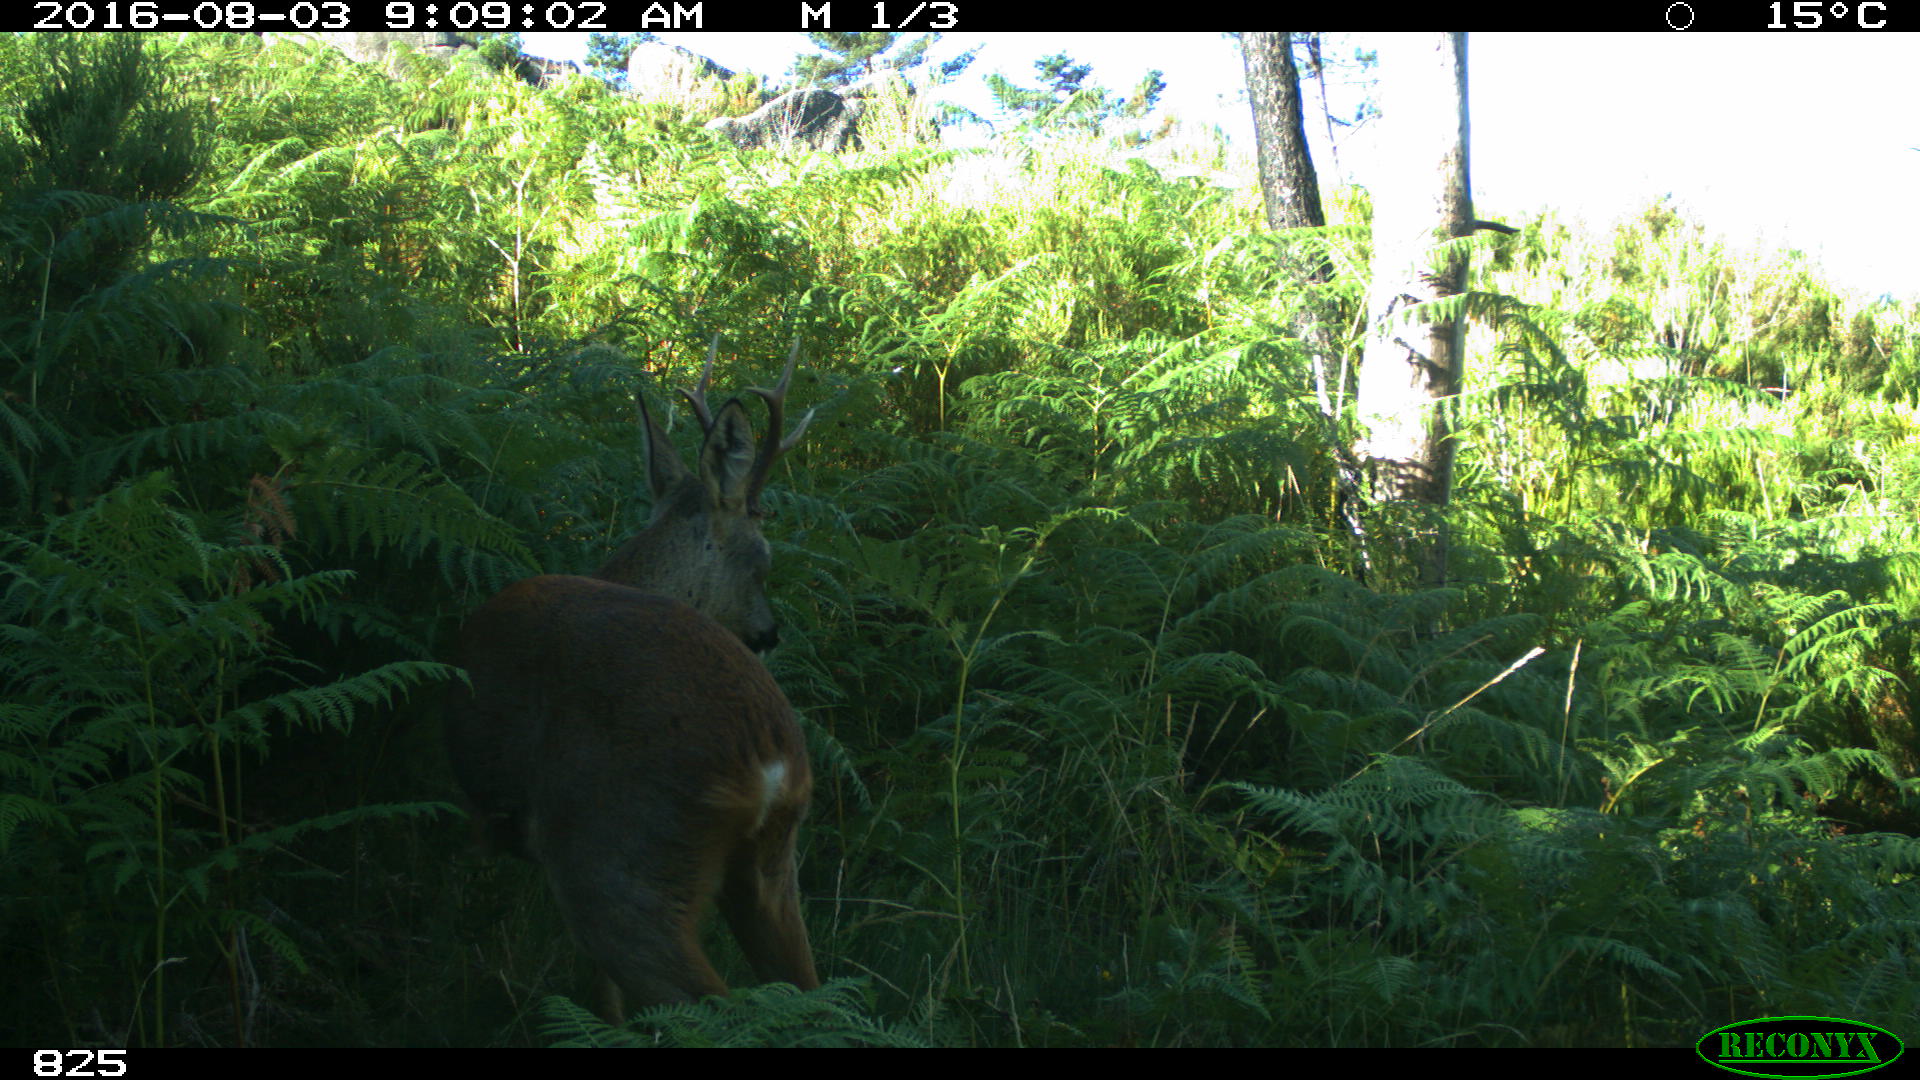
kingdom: Animalia
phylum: Chordata
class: Mammalia
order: Artiodactyla
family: Cervidae
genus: Capreolus
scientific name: Capreolus capreolus
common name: Western roe deer
